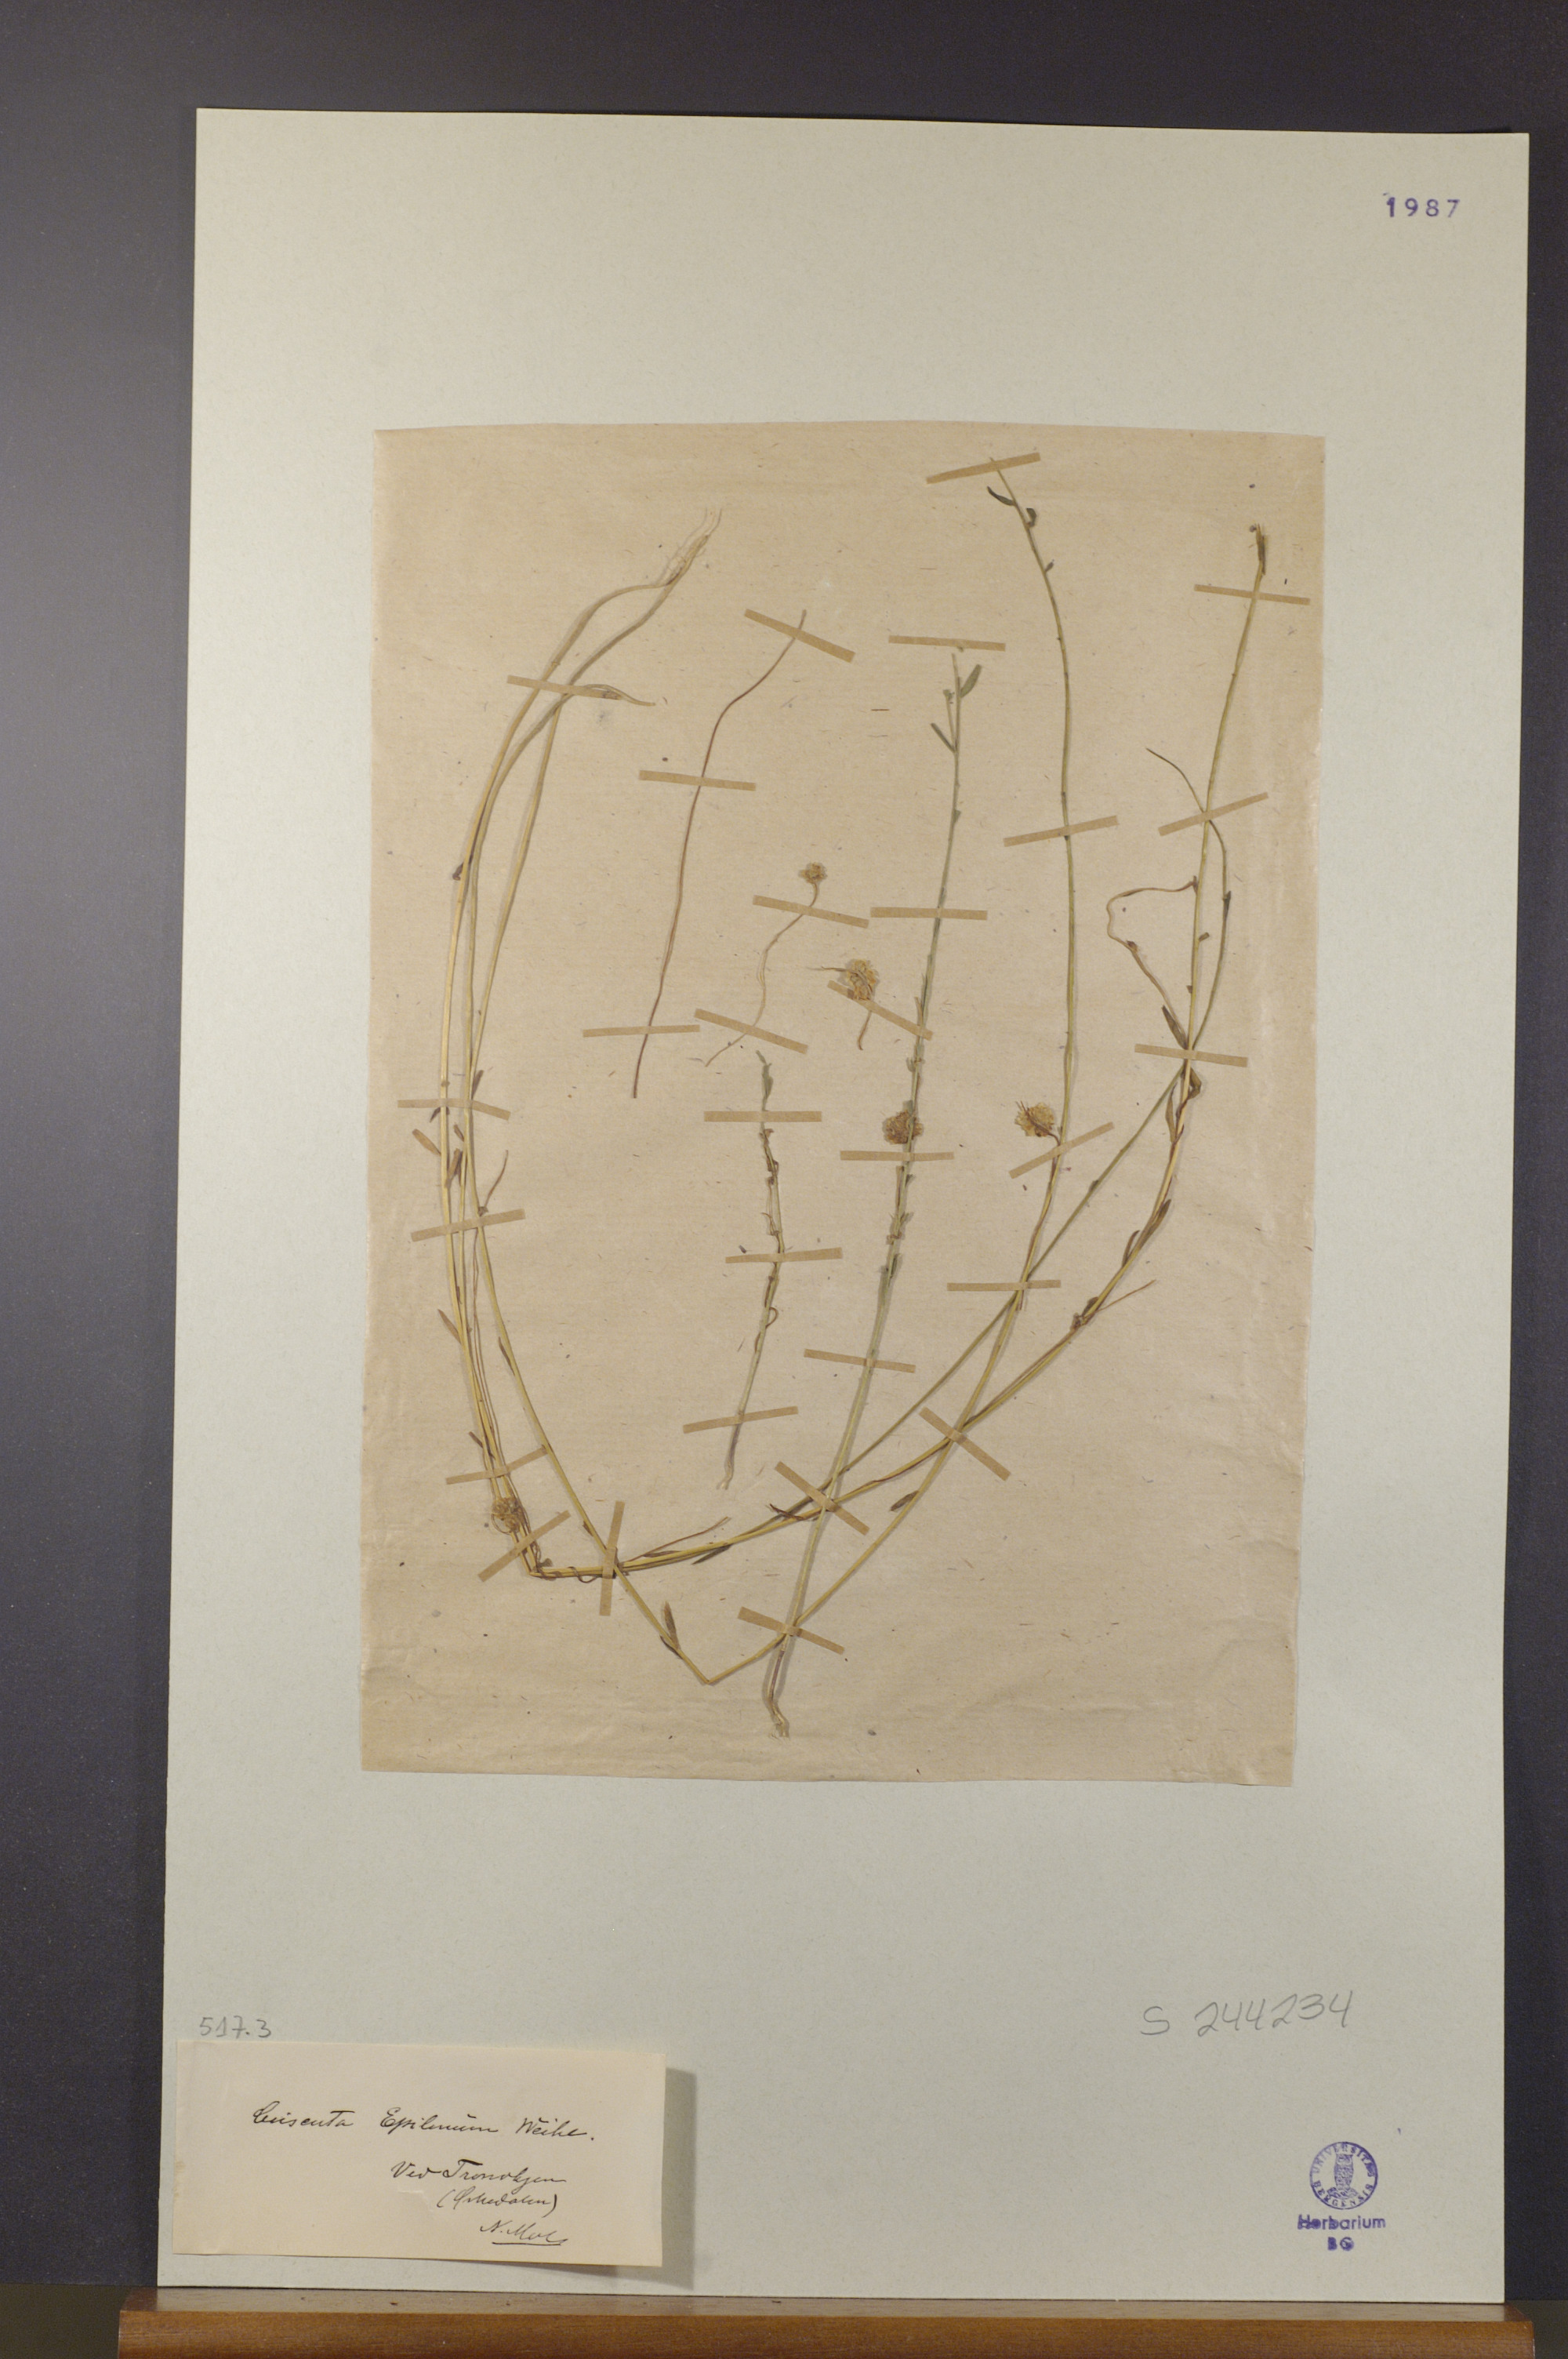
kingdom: Plantae
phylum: Tracheophyta
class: Magnoliopsida
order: Solanales
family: Convolvulaceae
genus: Cuscuta
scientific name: Cuscuta epilinum
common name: Flax dodder
